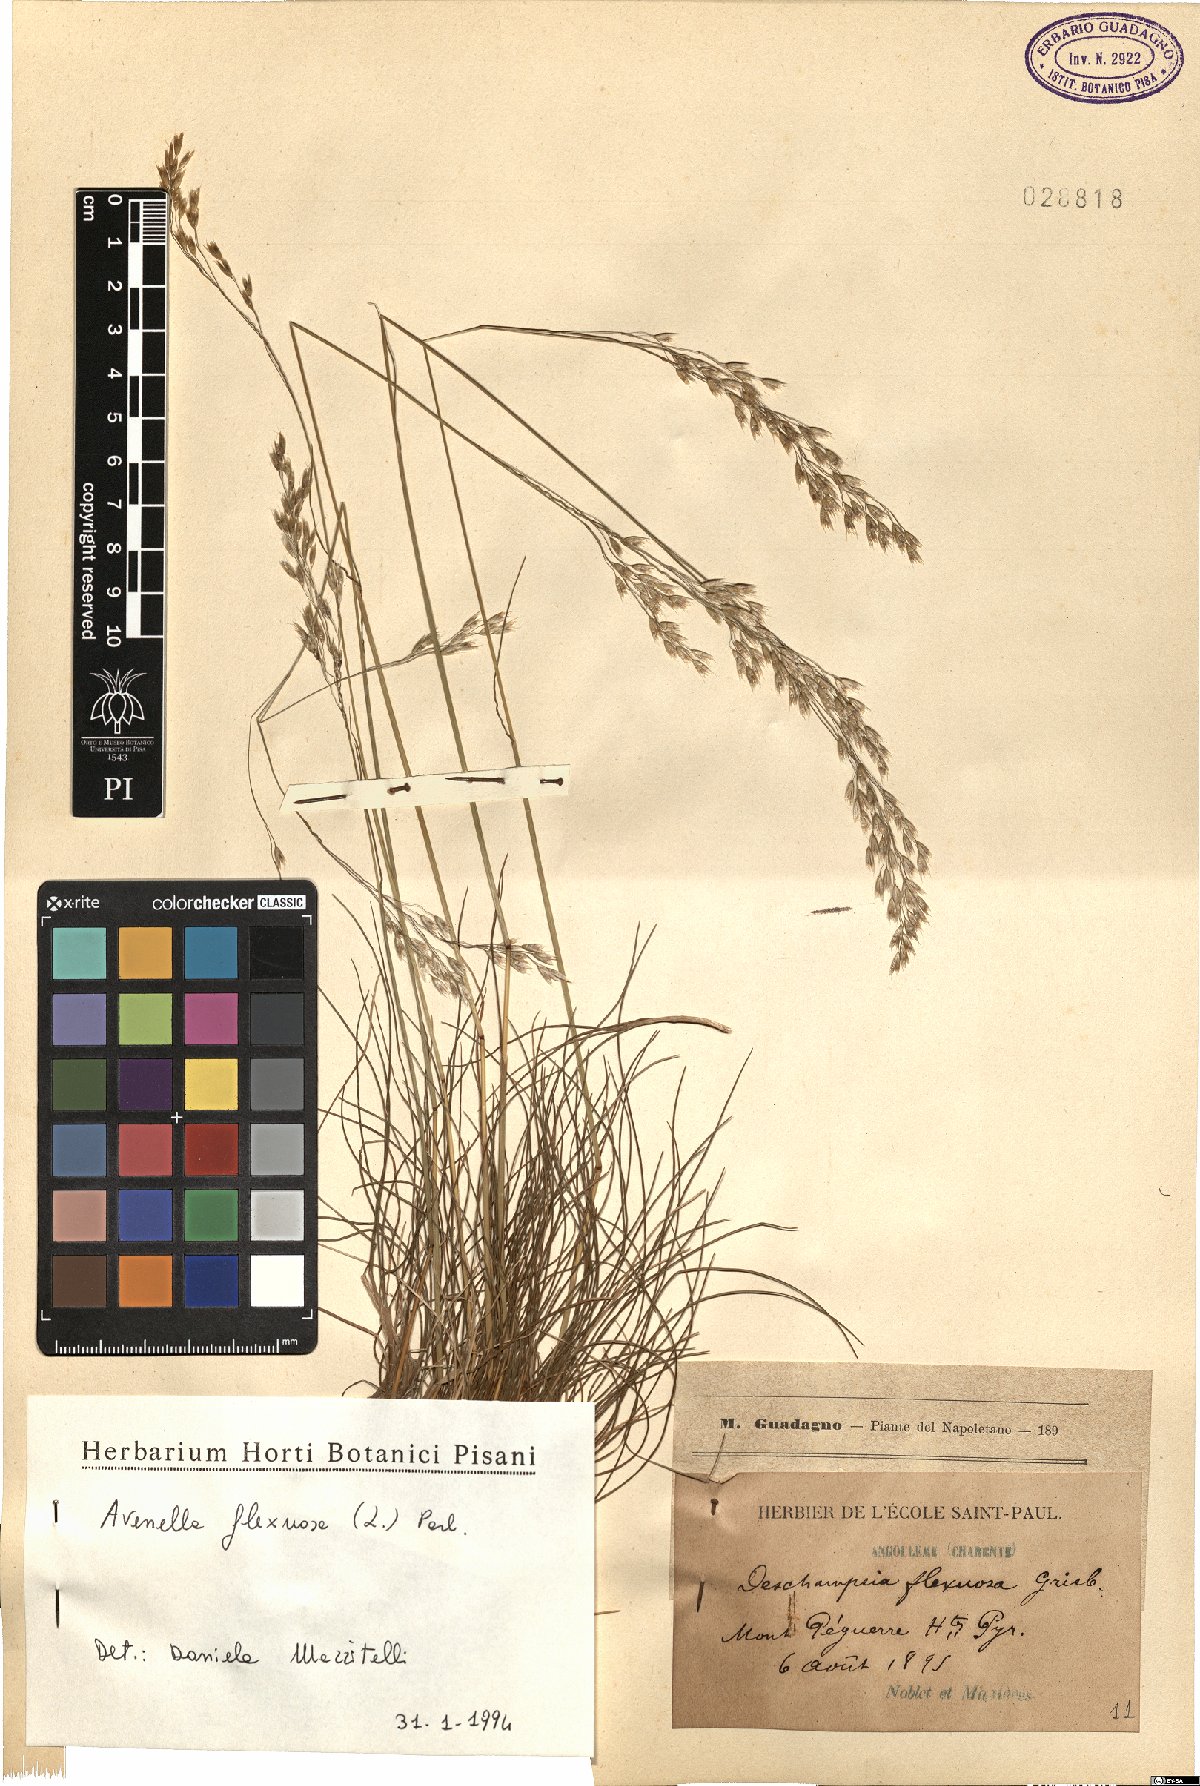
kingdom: Plantae
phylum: Tracheophyta
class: Liliopsida
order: Poales
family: Poaceae
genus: Avenella
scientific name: Avenella flexuosa
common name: Wavy hairgrass
